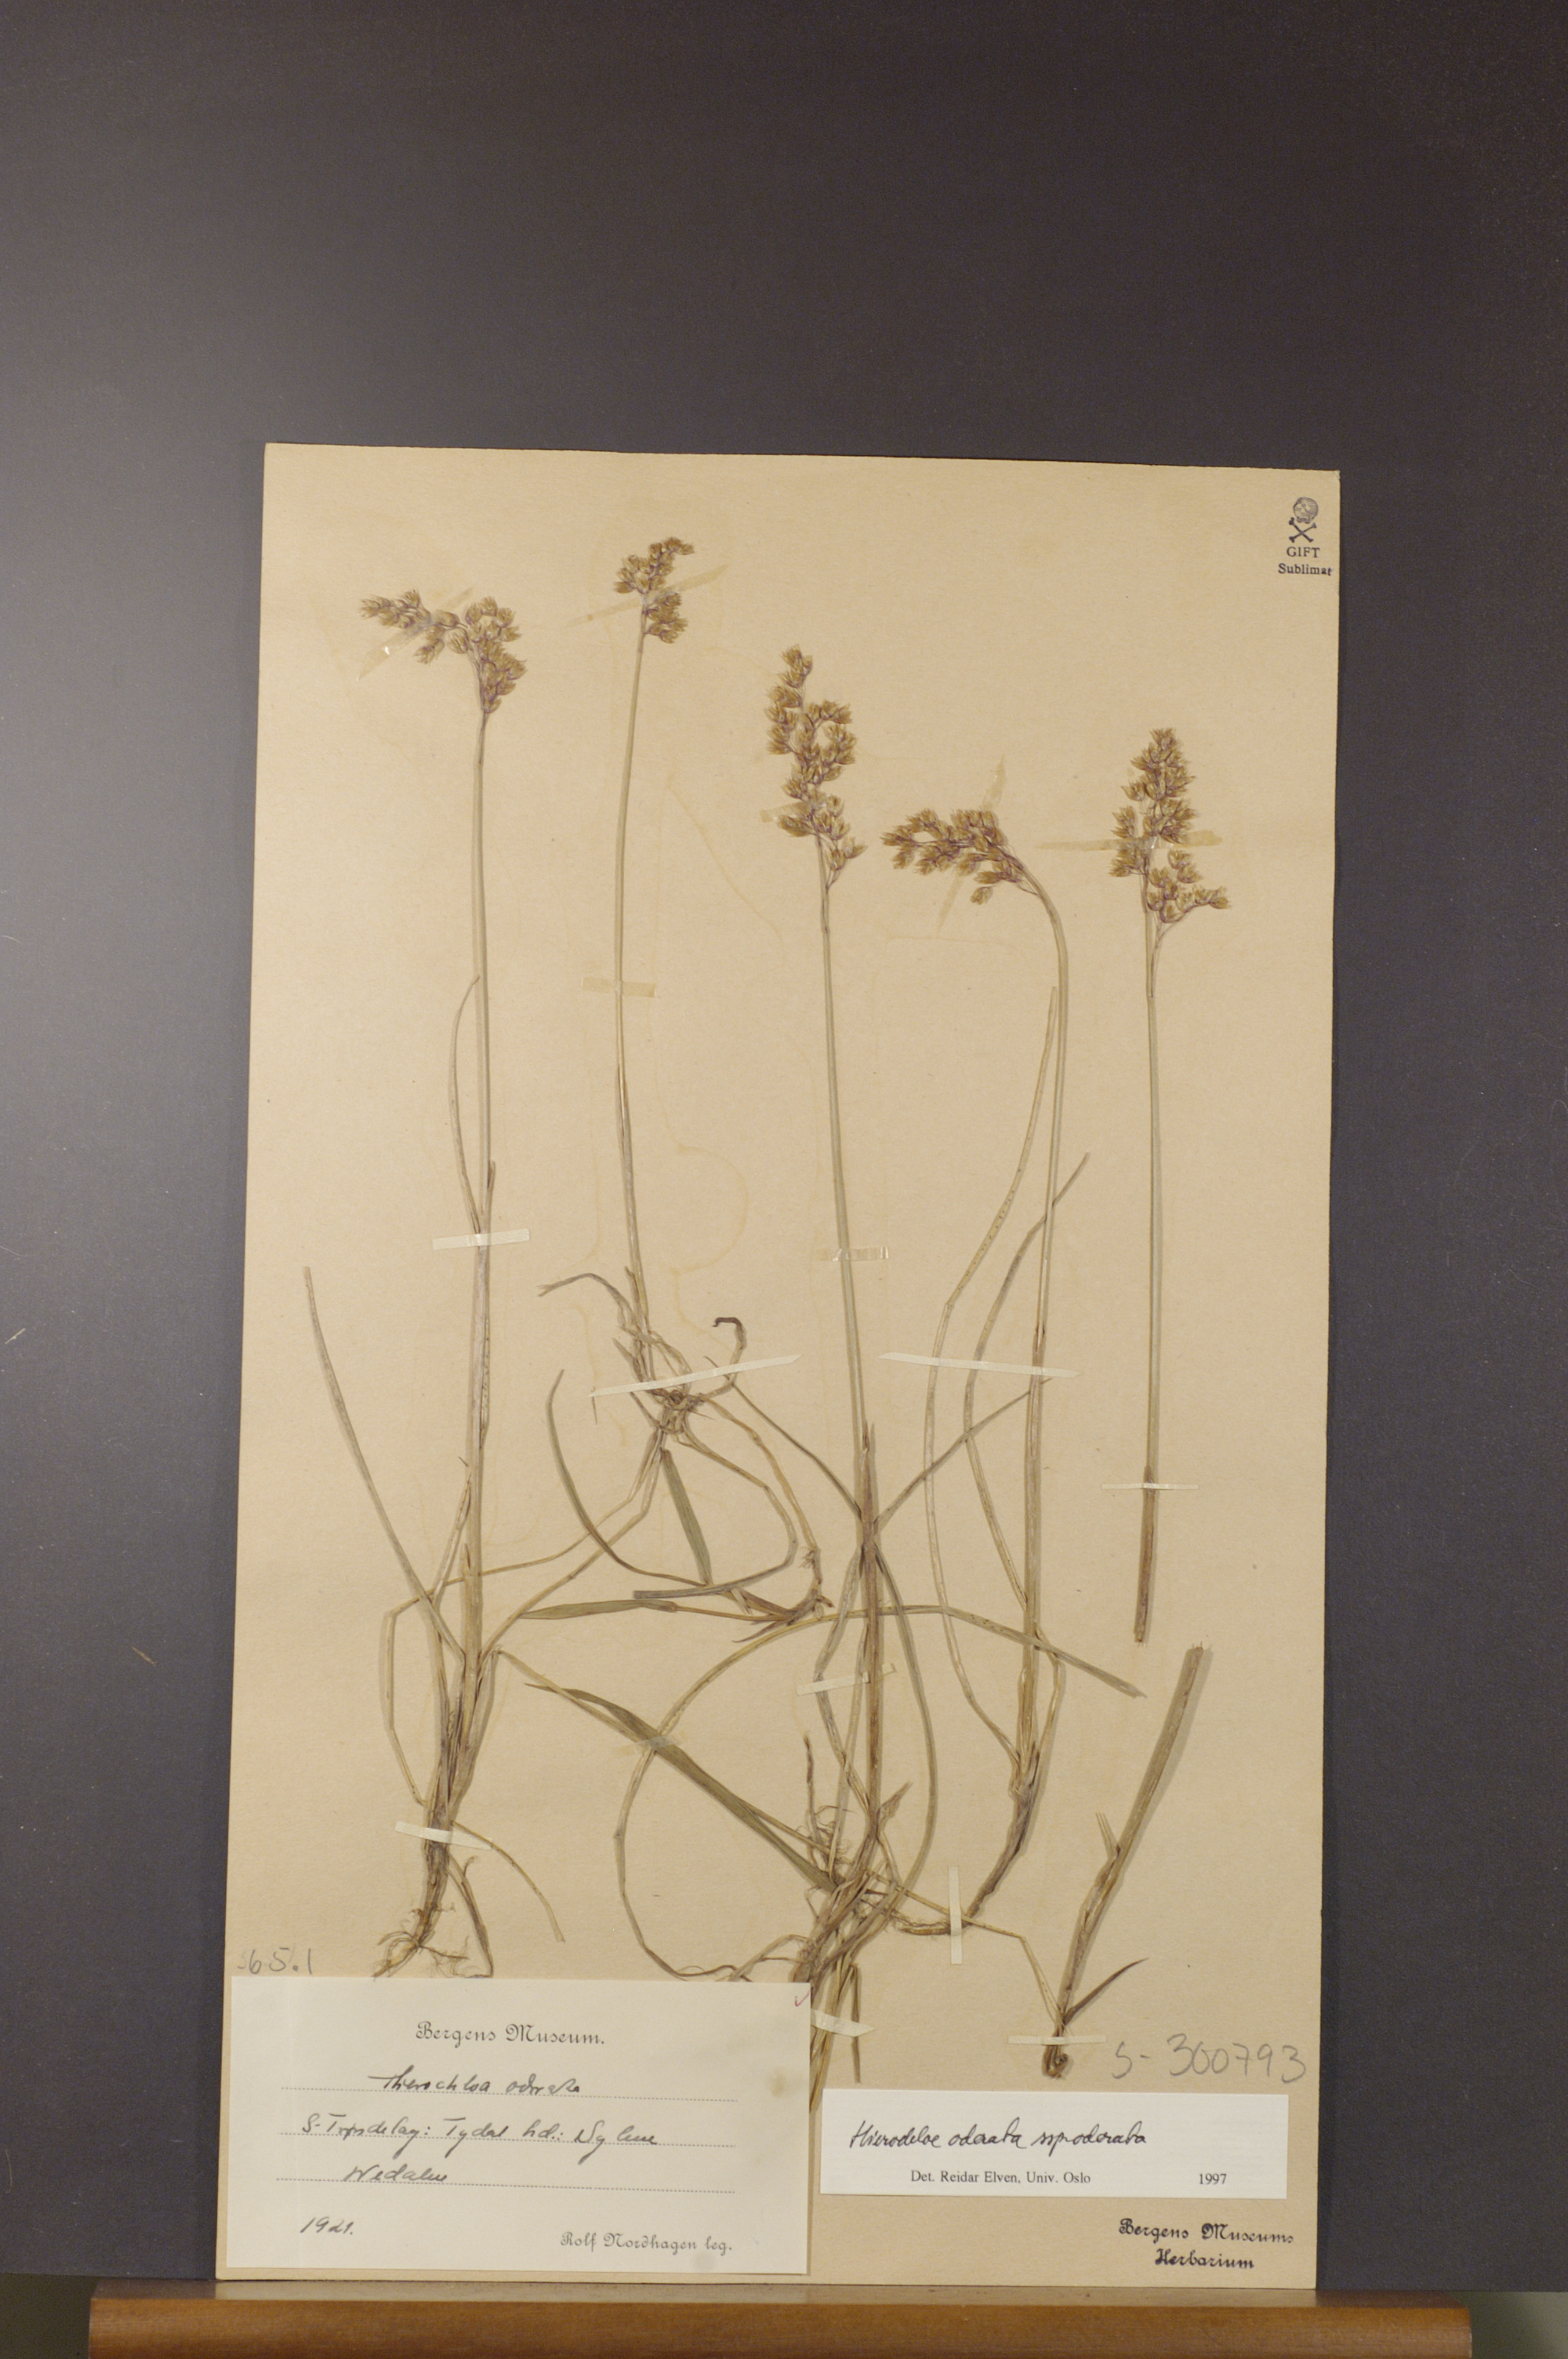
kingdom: Plantae
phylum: Tracheophyta
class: Liliopsida
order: Poales
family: Poaceae
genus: Anthoxanthum
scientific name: Anthoxanthum nitens
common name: Holy grass
